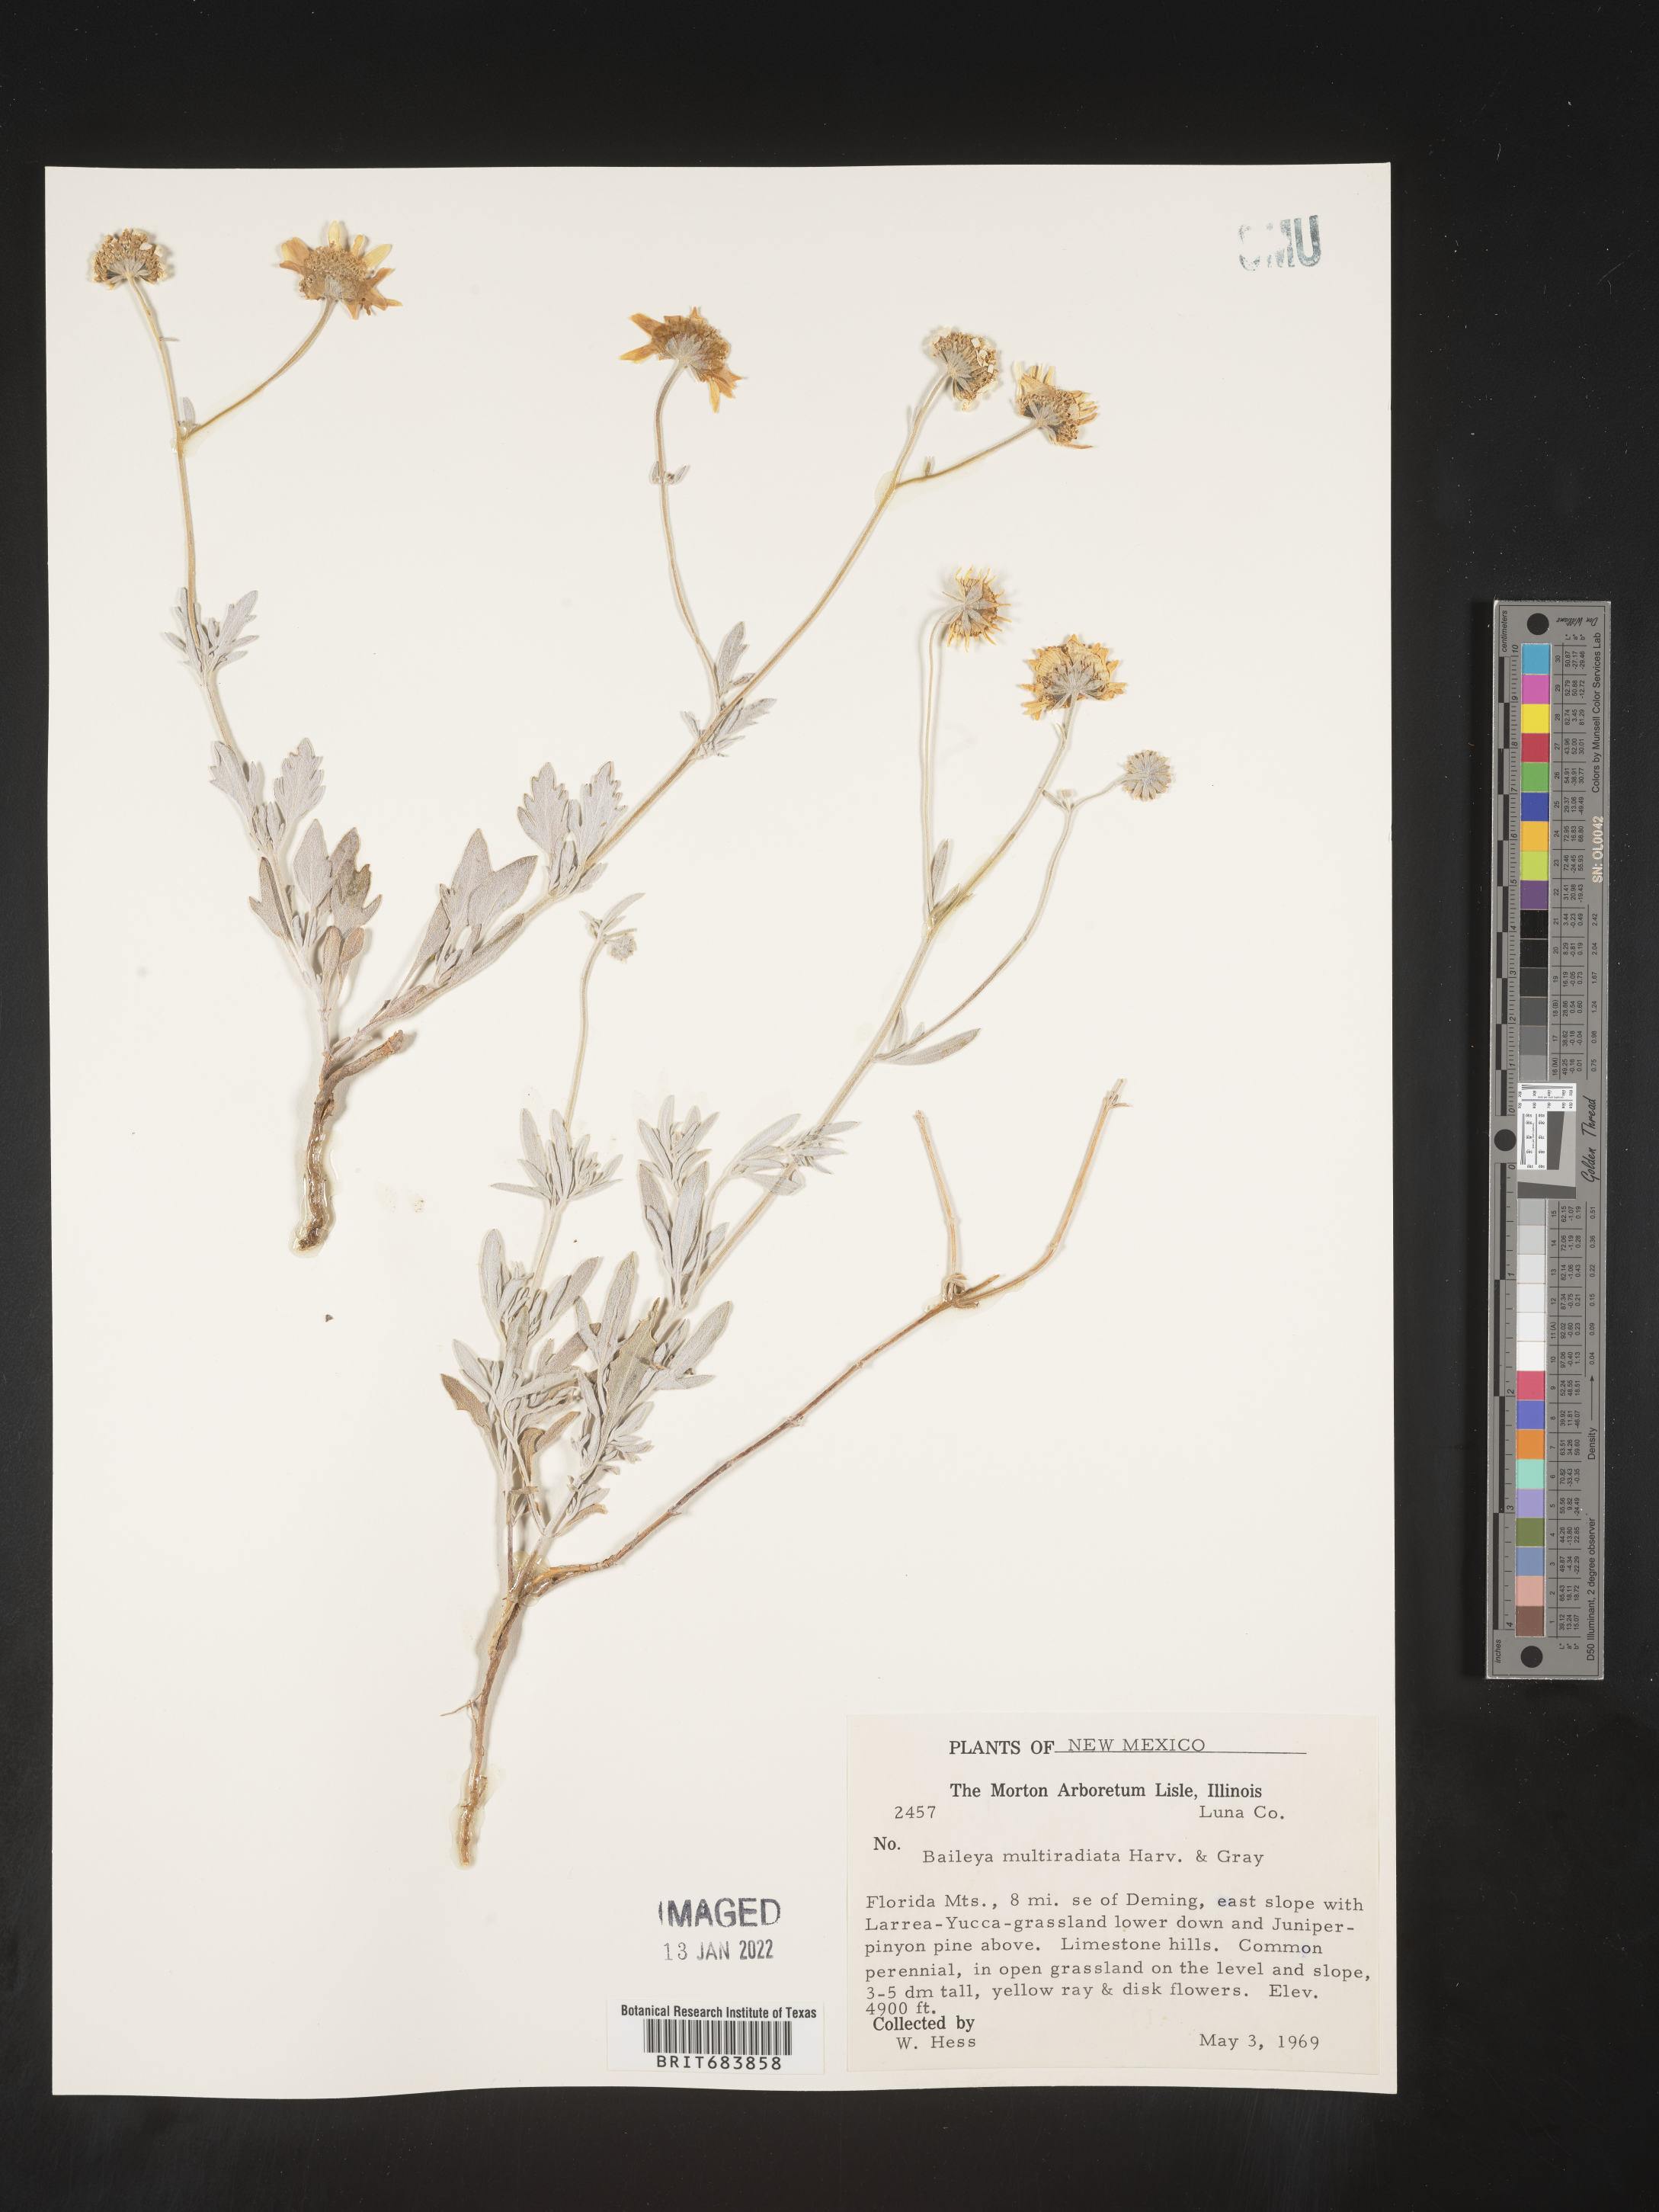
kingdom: Plantae
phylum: Tracheophyta
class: Magnoliopsida
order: Asterales
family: Asteraceae
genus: Baileya
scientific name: Baileya multiradiata
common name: Desert-marigold
